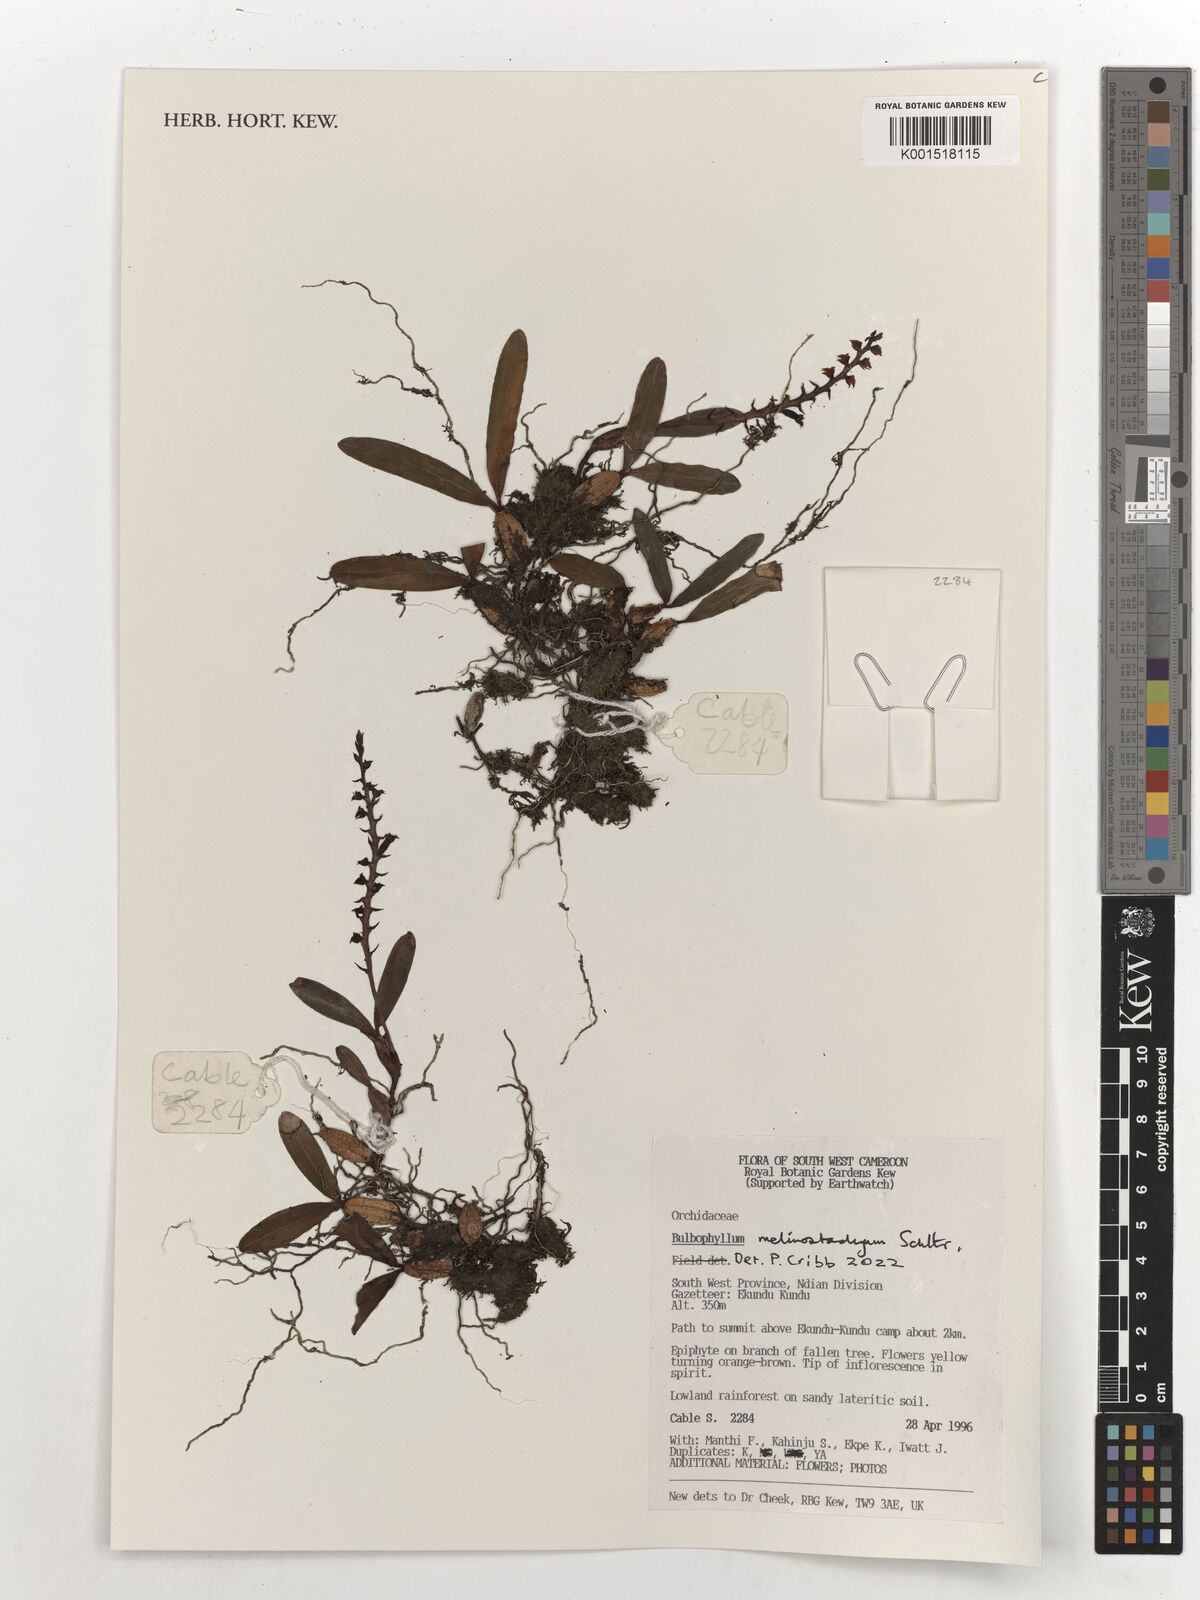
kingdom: Plantae
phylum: Tracheophyta
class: Liliopsida
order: Asparagales
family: Orchidaceae
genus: Bulbophyllum
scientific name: Bulbophyllum fuscum
